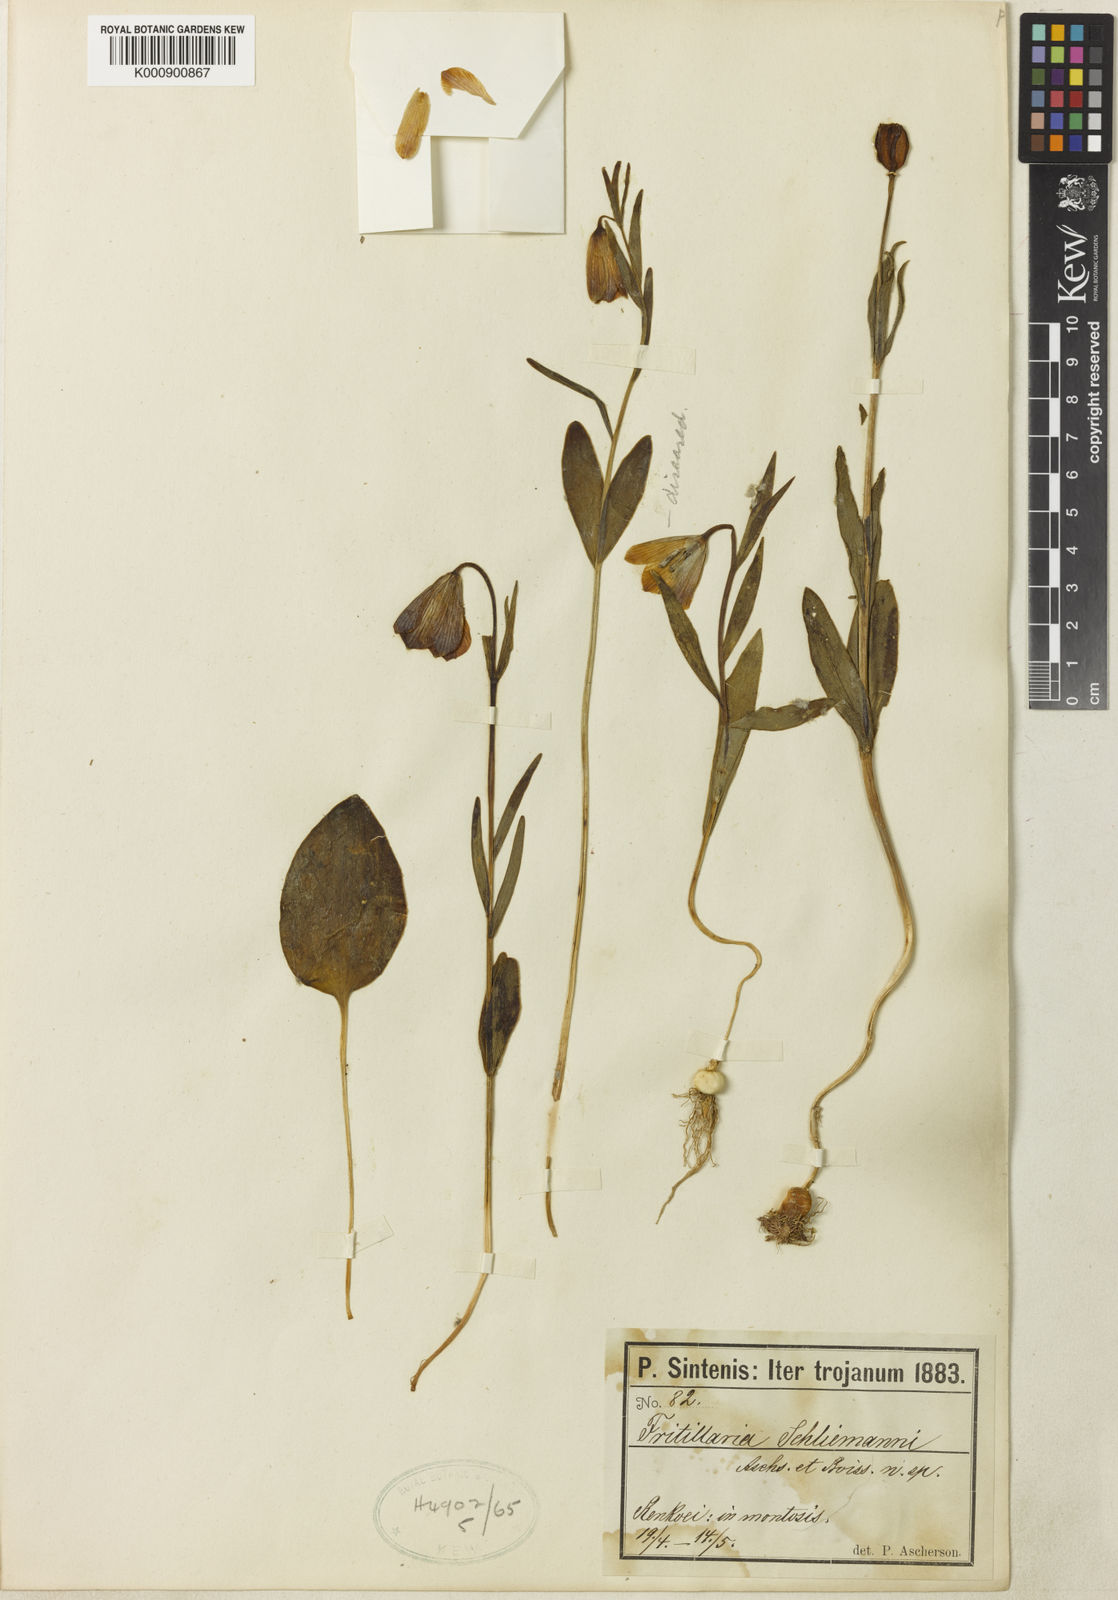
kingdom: Plantae
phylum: Tracheophyta
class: Liliopsida
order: Liliales
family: Liliaceae
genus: Fritillaria
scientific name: Fritillaria
